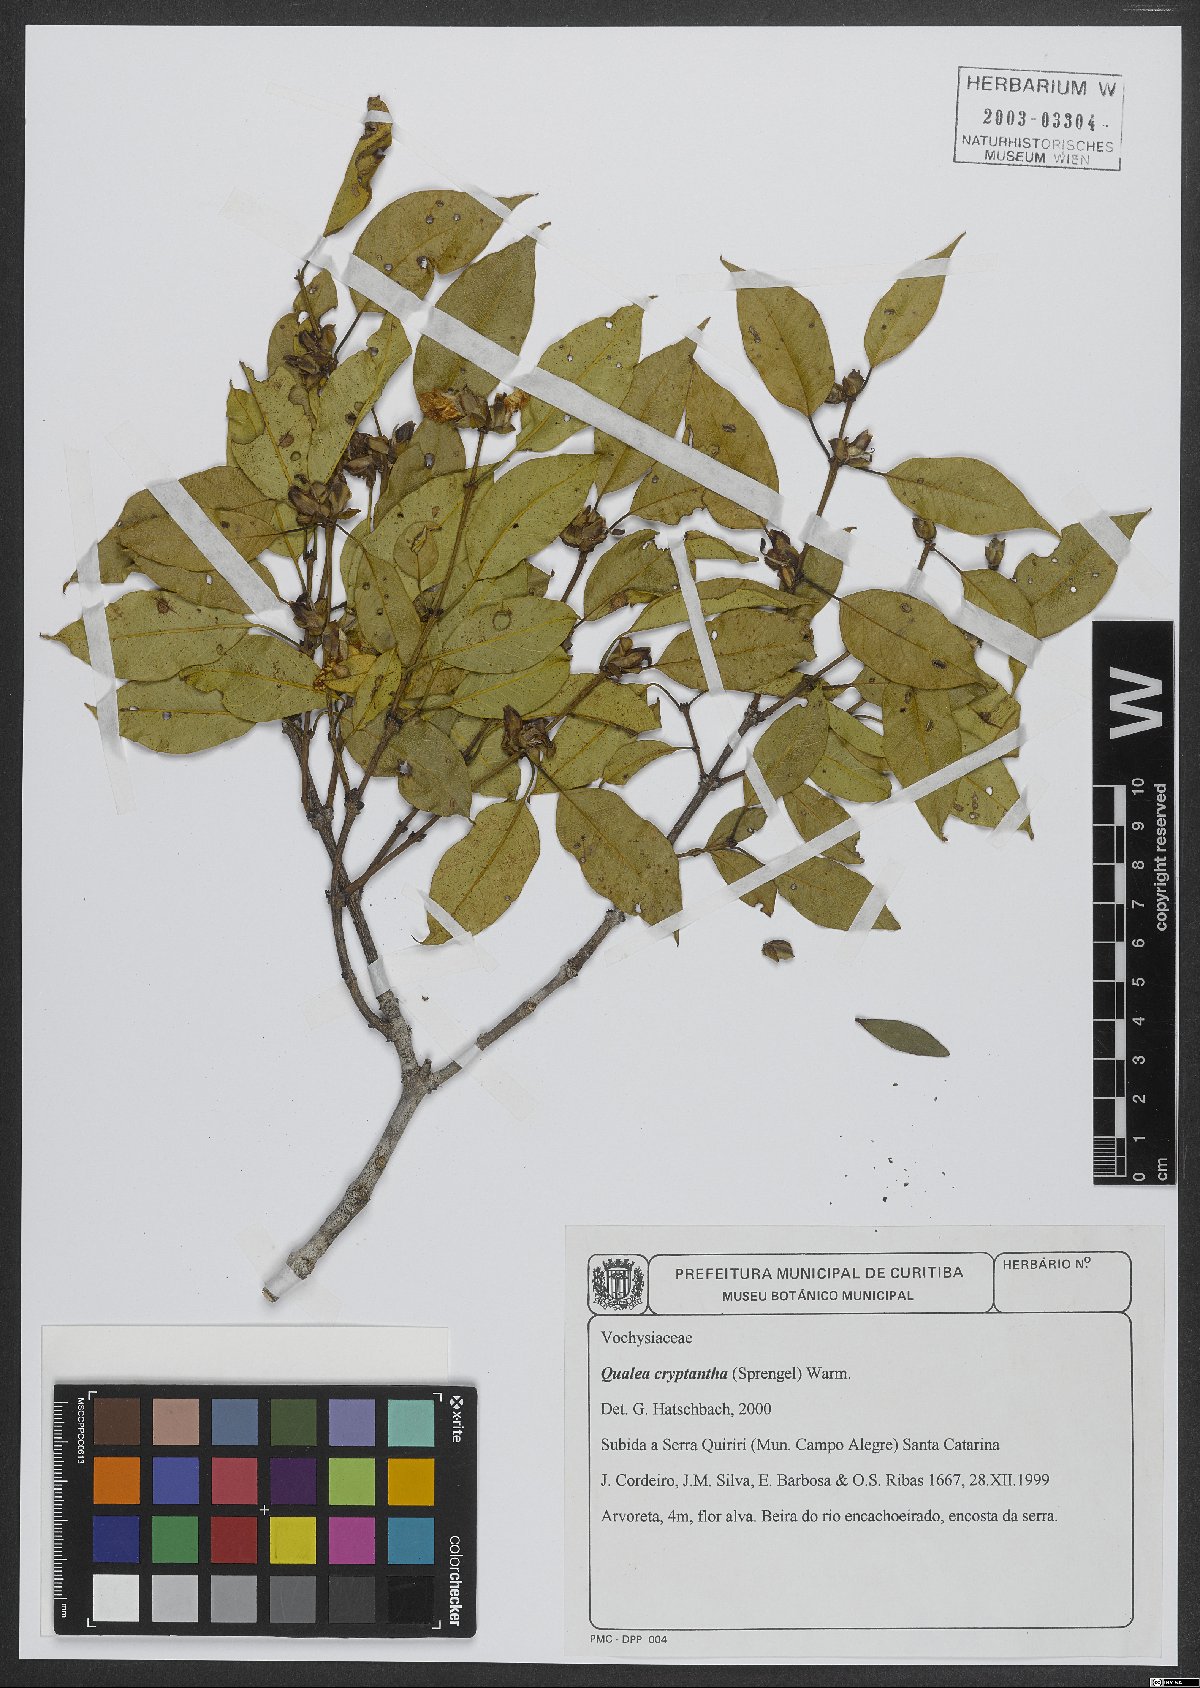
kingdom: Plantae
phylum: Tracheophyta
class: Magnoliopsida
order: Myrtales
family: Vochysiaceae
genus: Qualea
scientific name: Qualea cryptantha
